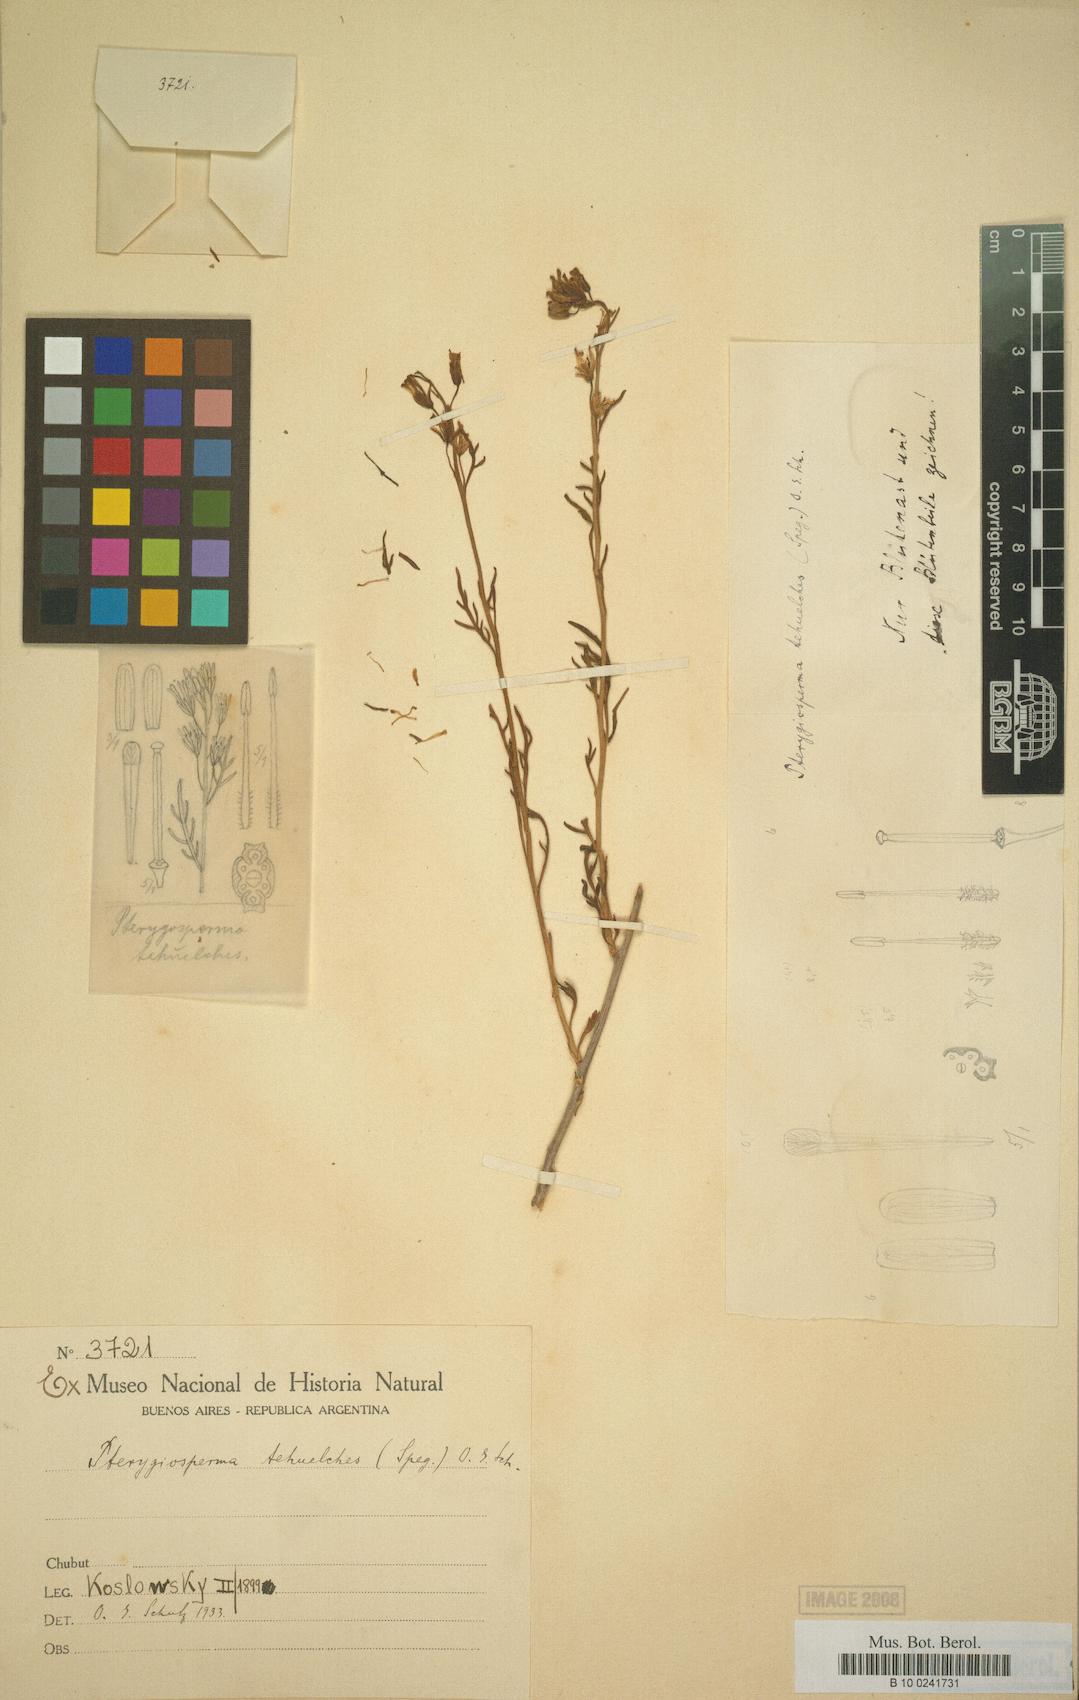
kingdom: Plantae
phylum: Tracheophyta
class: Magnoliopsida
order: Brassicales
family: Brassicaceae
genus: Sibara
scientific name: Sibara tehuelches
